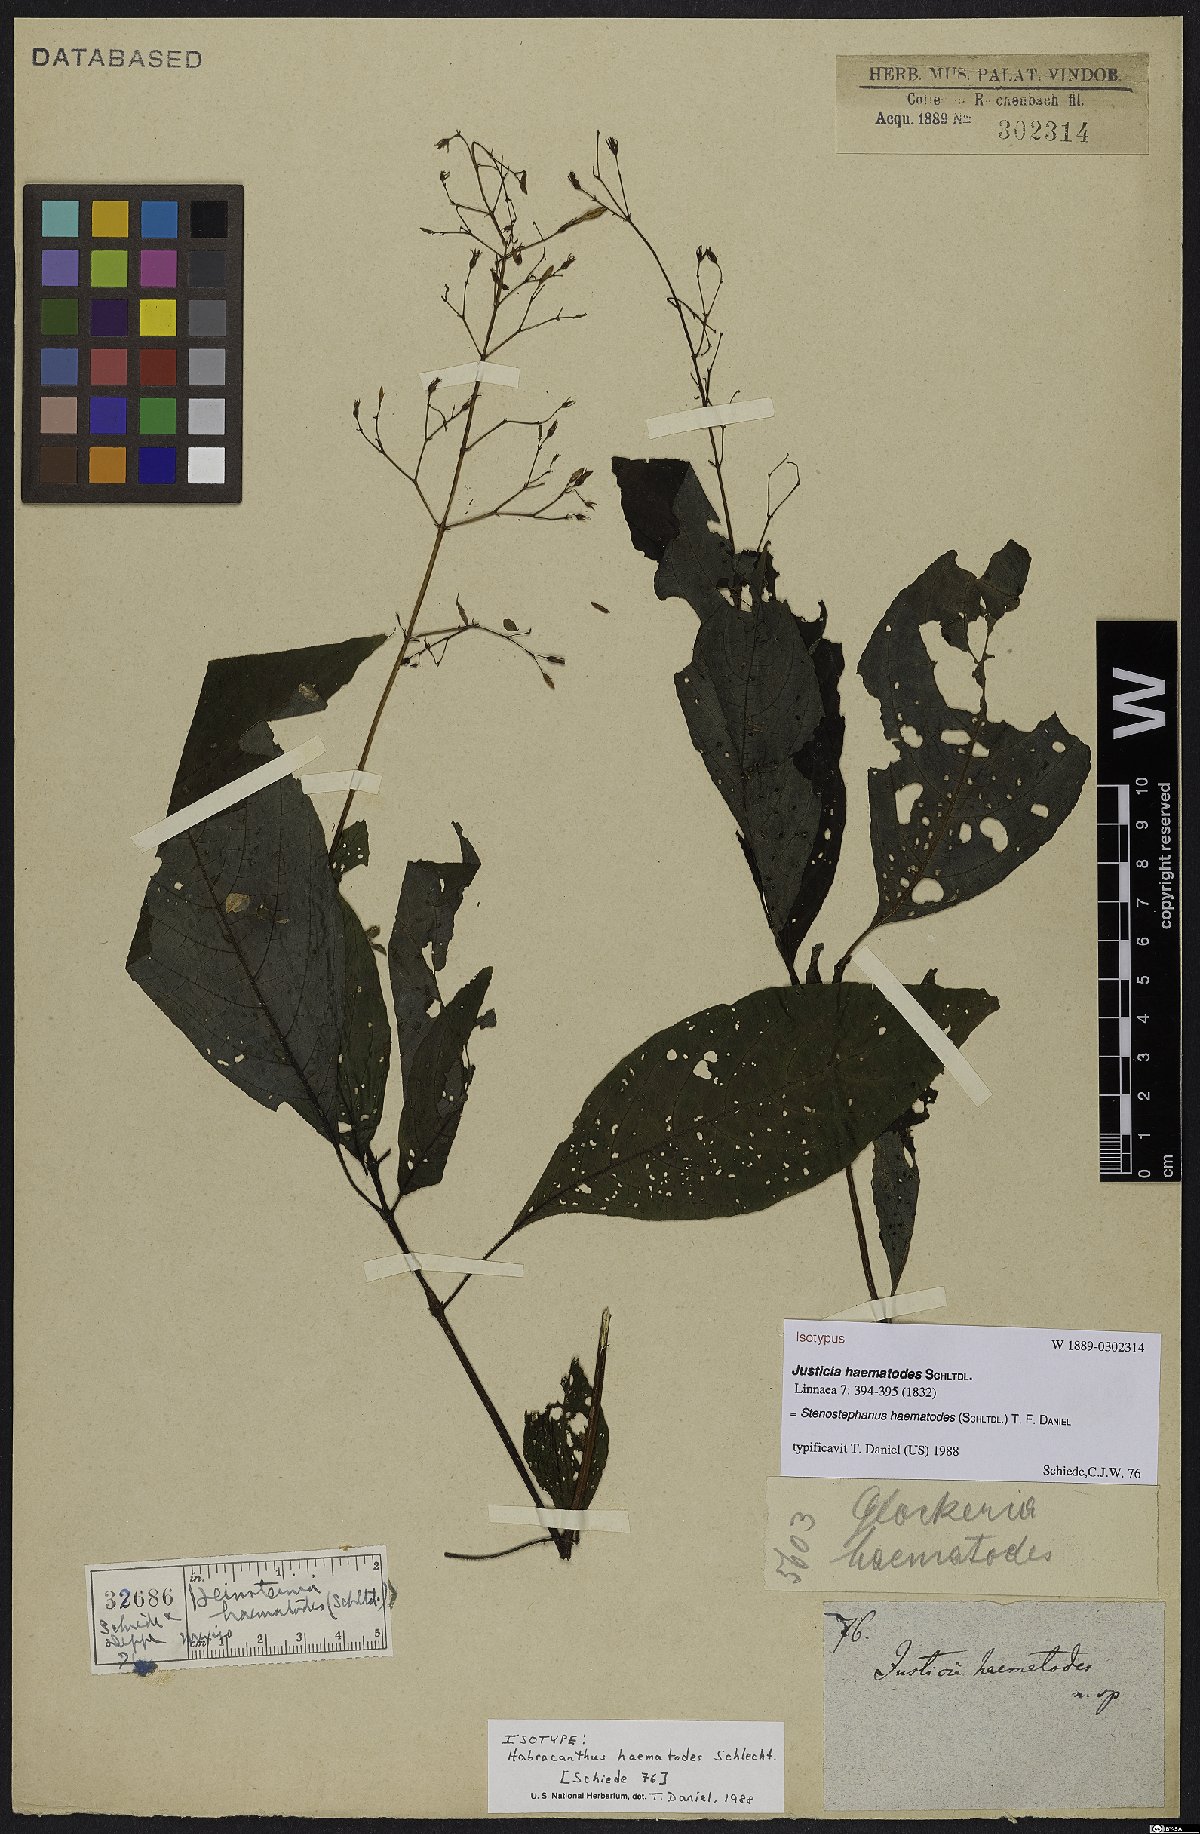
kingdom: Plantae
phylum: Tracheophyta
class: Magnoliopsida
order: Lamiales
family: Acanthaceae
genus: Stenostephanus
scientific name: Stenostephanus haematodes
